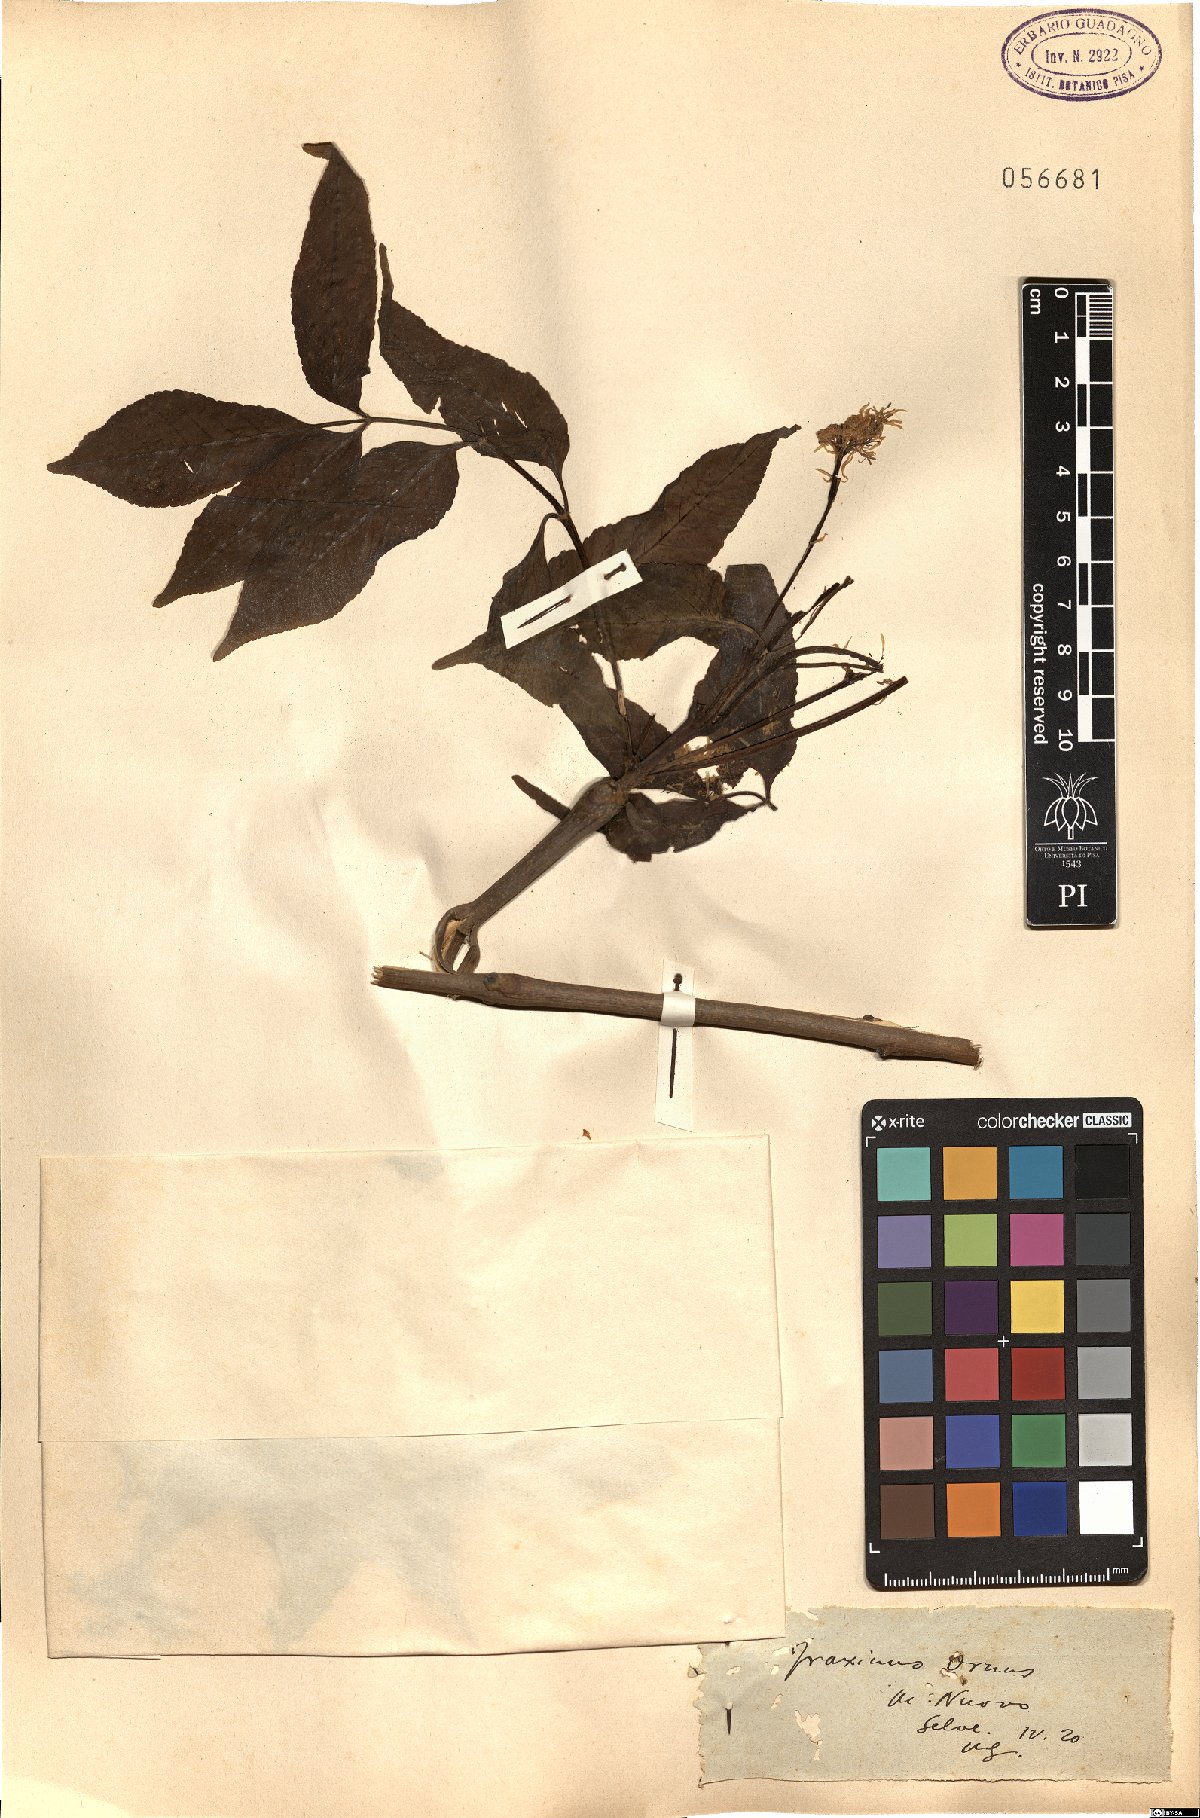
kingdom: Plantae
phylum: Tracheophyta
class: Magnoliopsida
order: Lamiales
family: Oleaceae
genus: Fraxinus
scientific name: Fraxinus ornus
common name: Manna ash
